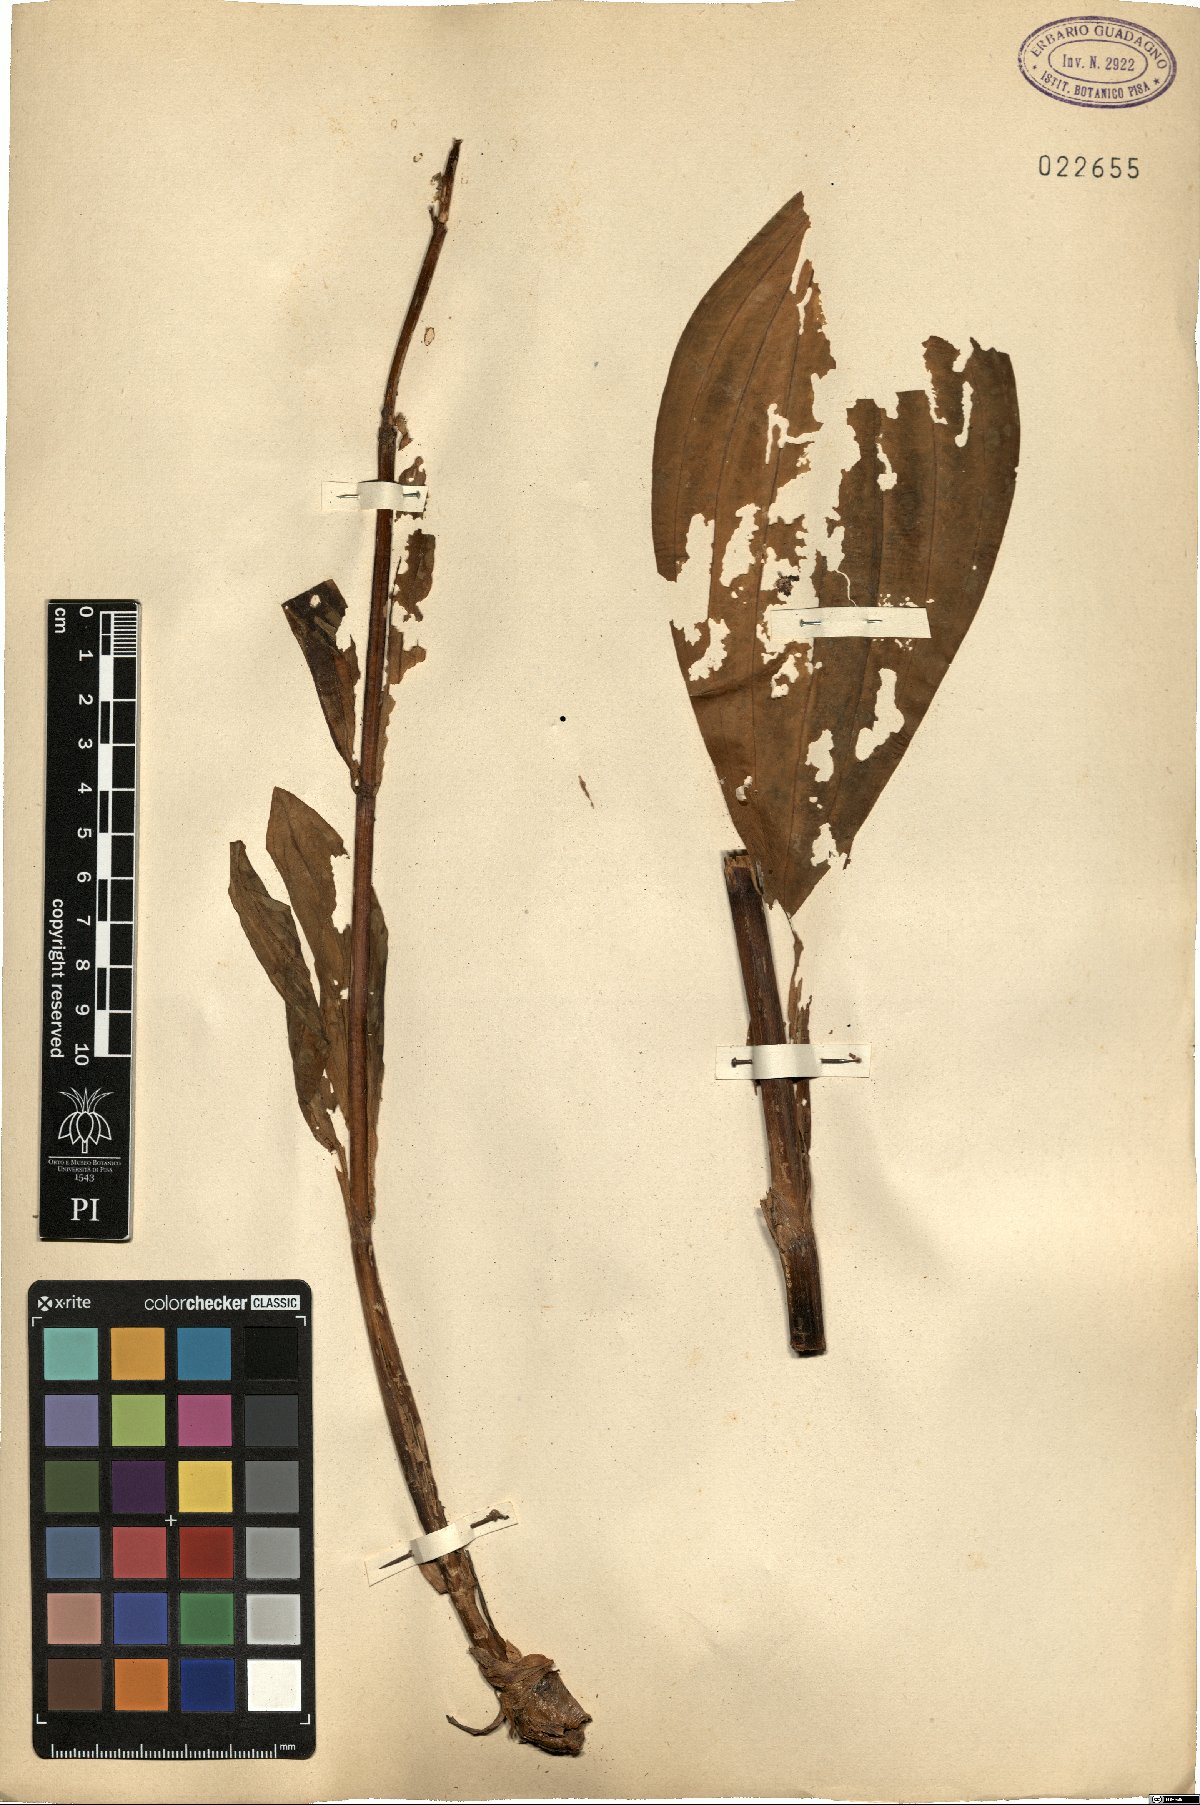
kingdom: Plantae
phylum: Tracheophyta
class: Magnoliopsida
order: Gentianales
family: Gentianaceae
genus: Gentiana
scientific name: Gentiana
